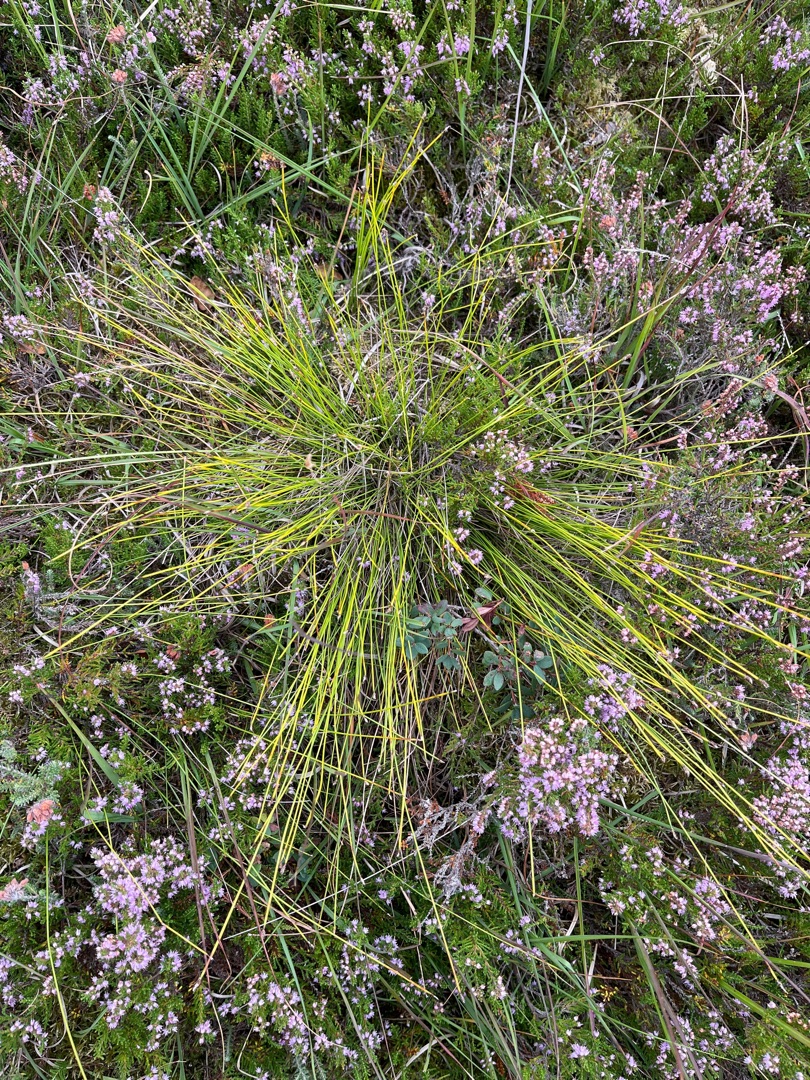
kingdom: Plantae
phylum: Tracheophyta
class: Liliopsida
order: Poales
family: Cyperaceae
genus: Trichophorum
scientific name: Trichophorum cespitosum
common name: Tuekogleaks
